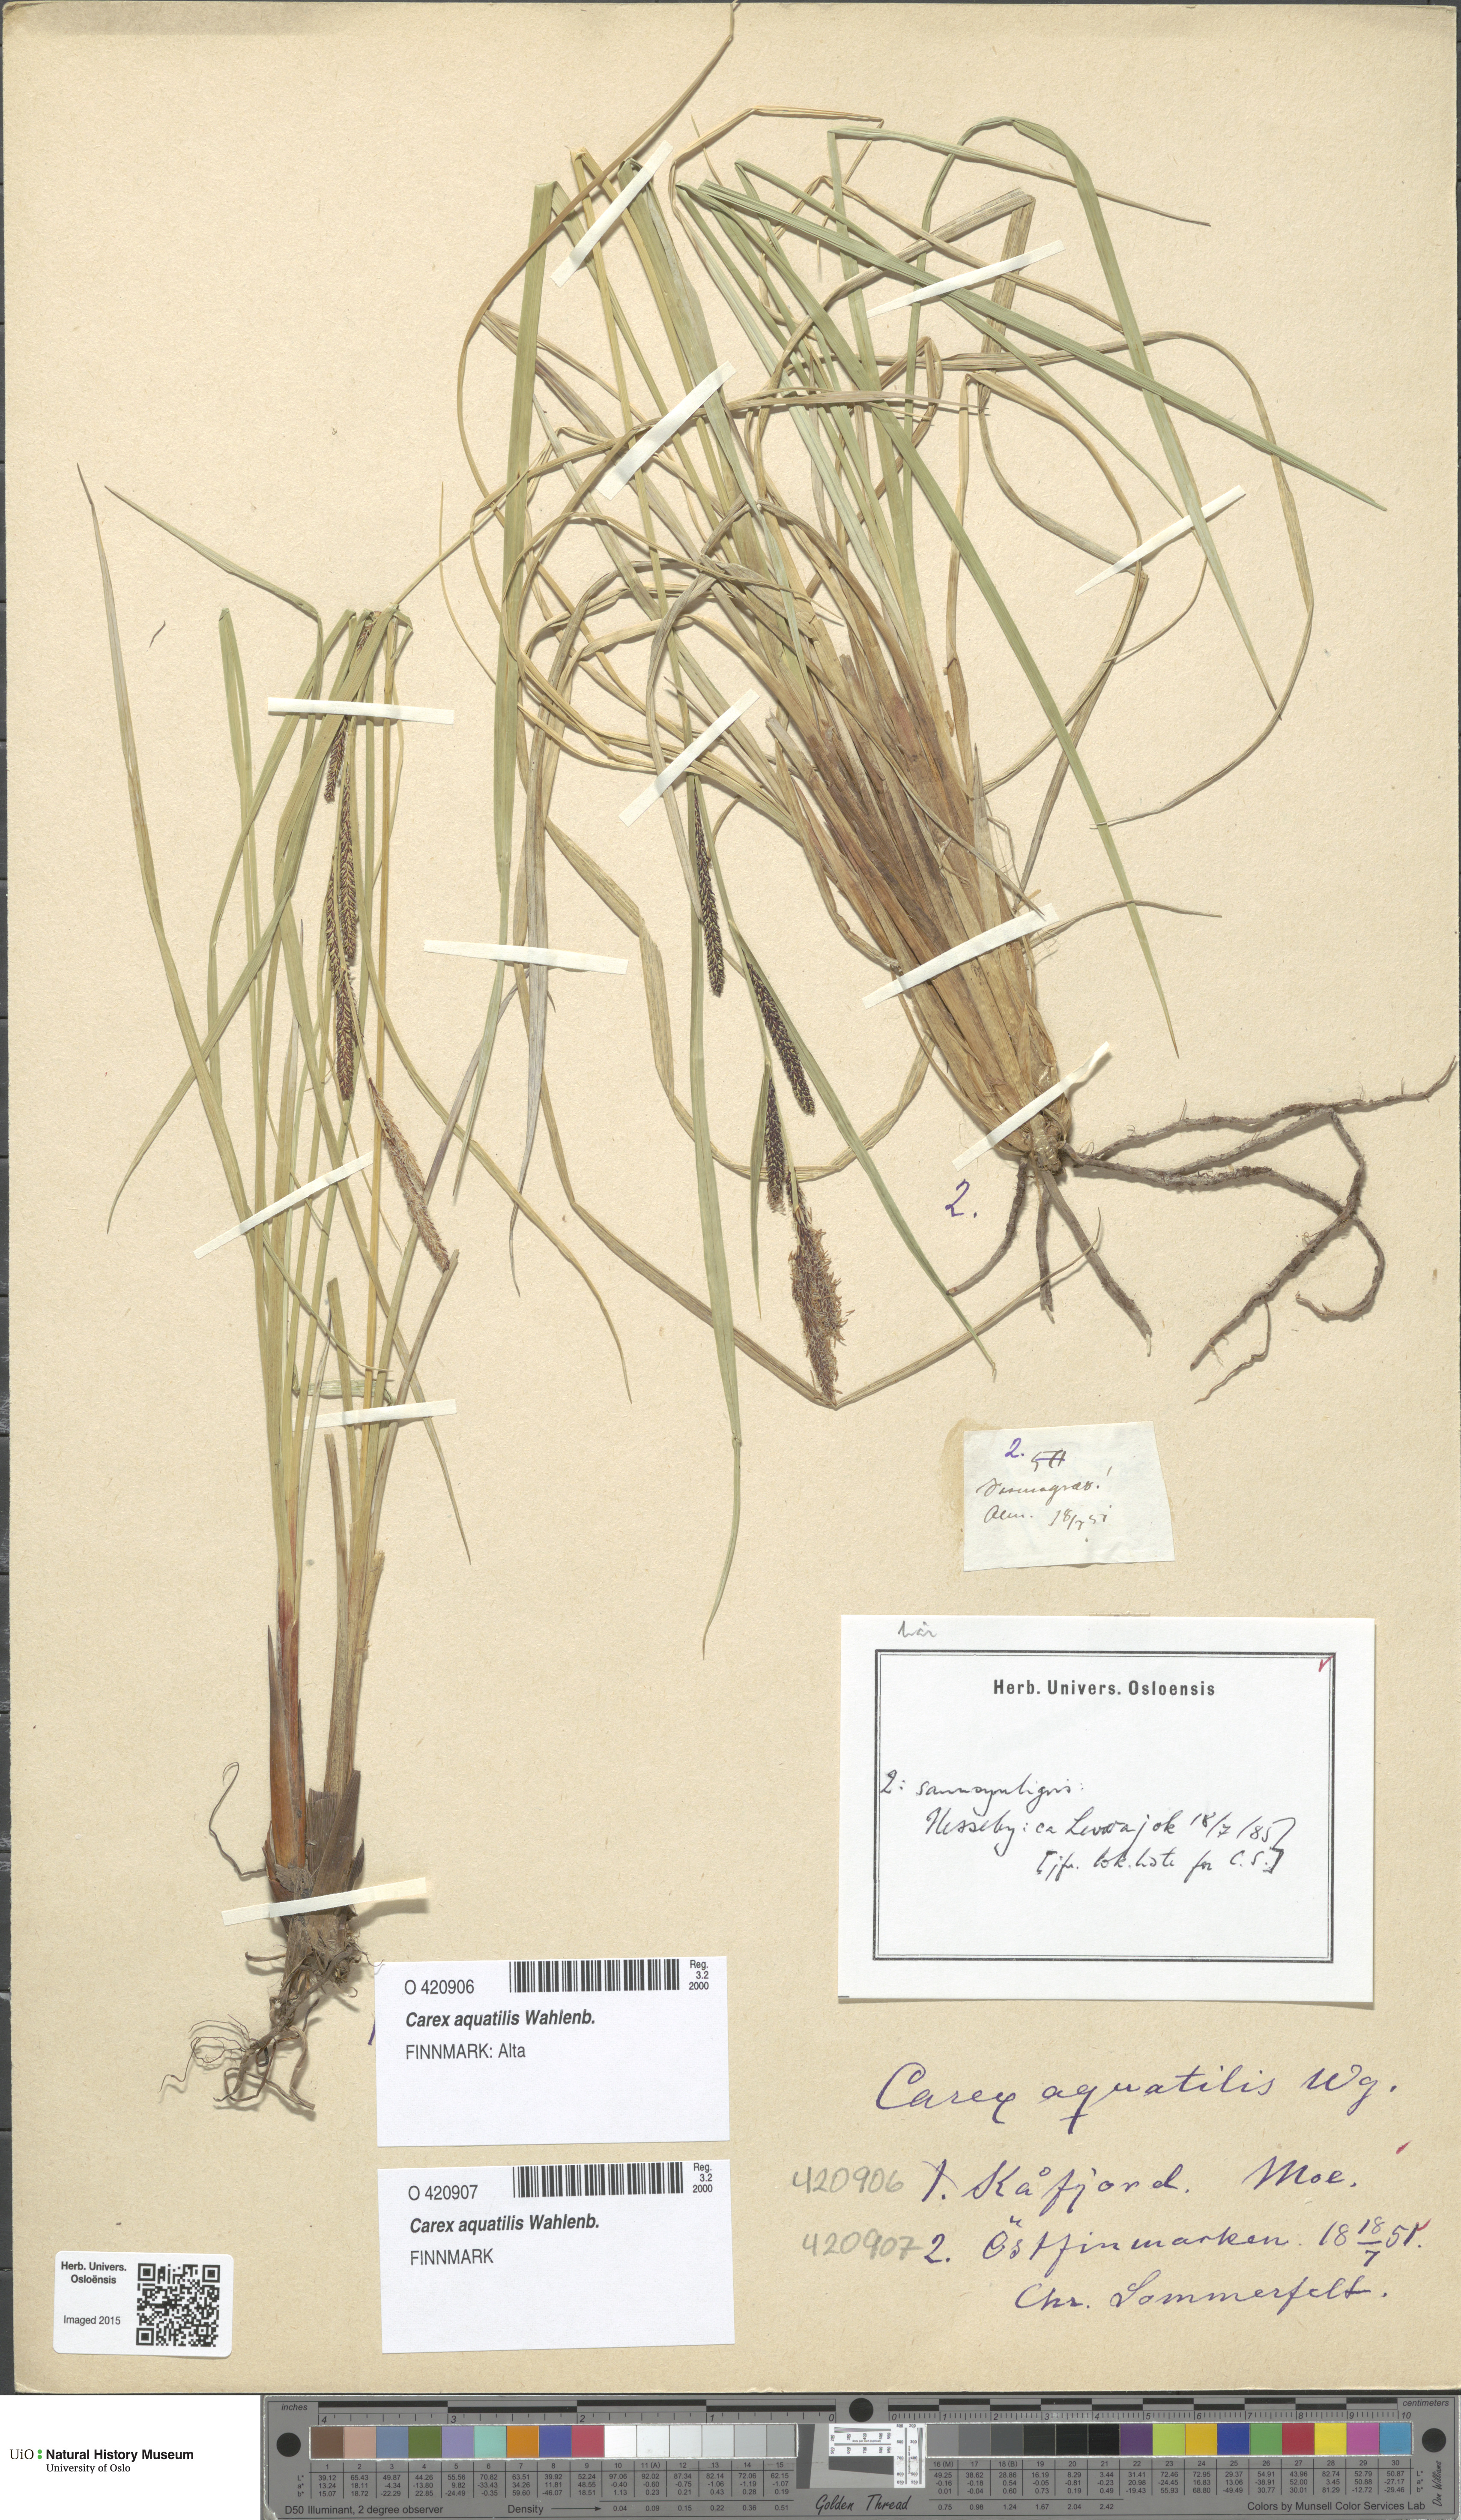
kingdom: Plantae
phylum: Tracheophyta
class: Liliopsida
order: Poales
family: Cyperaceae
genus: Carex
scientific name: Carex aquatilis
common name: Water sedge
